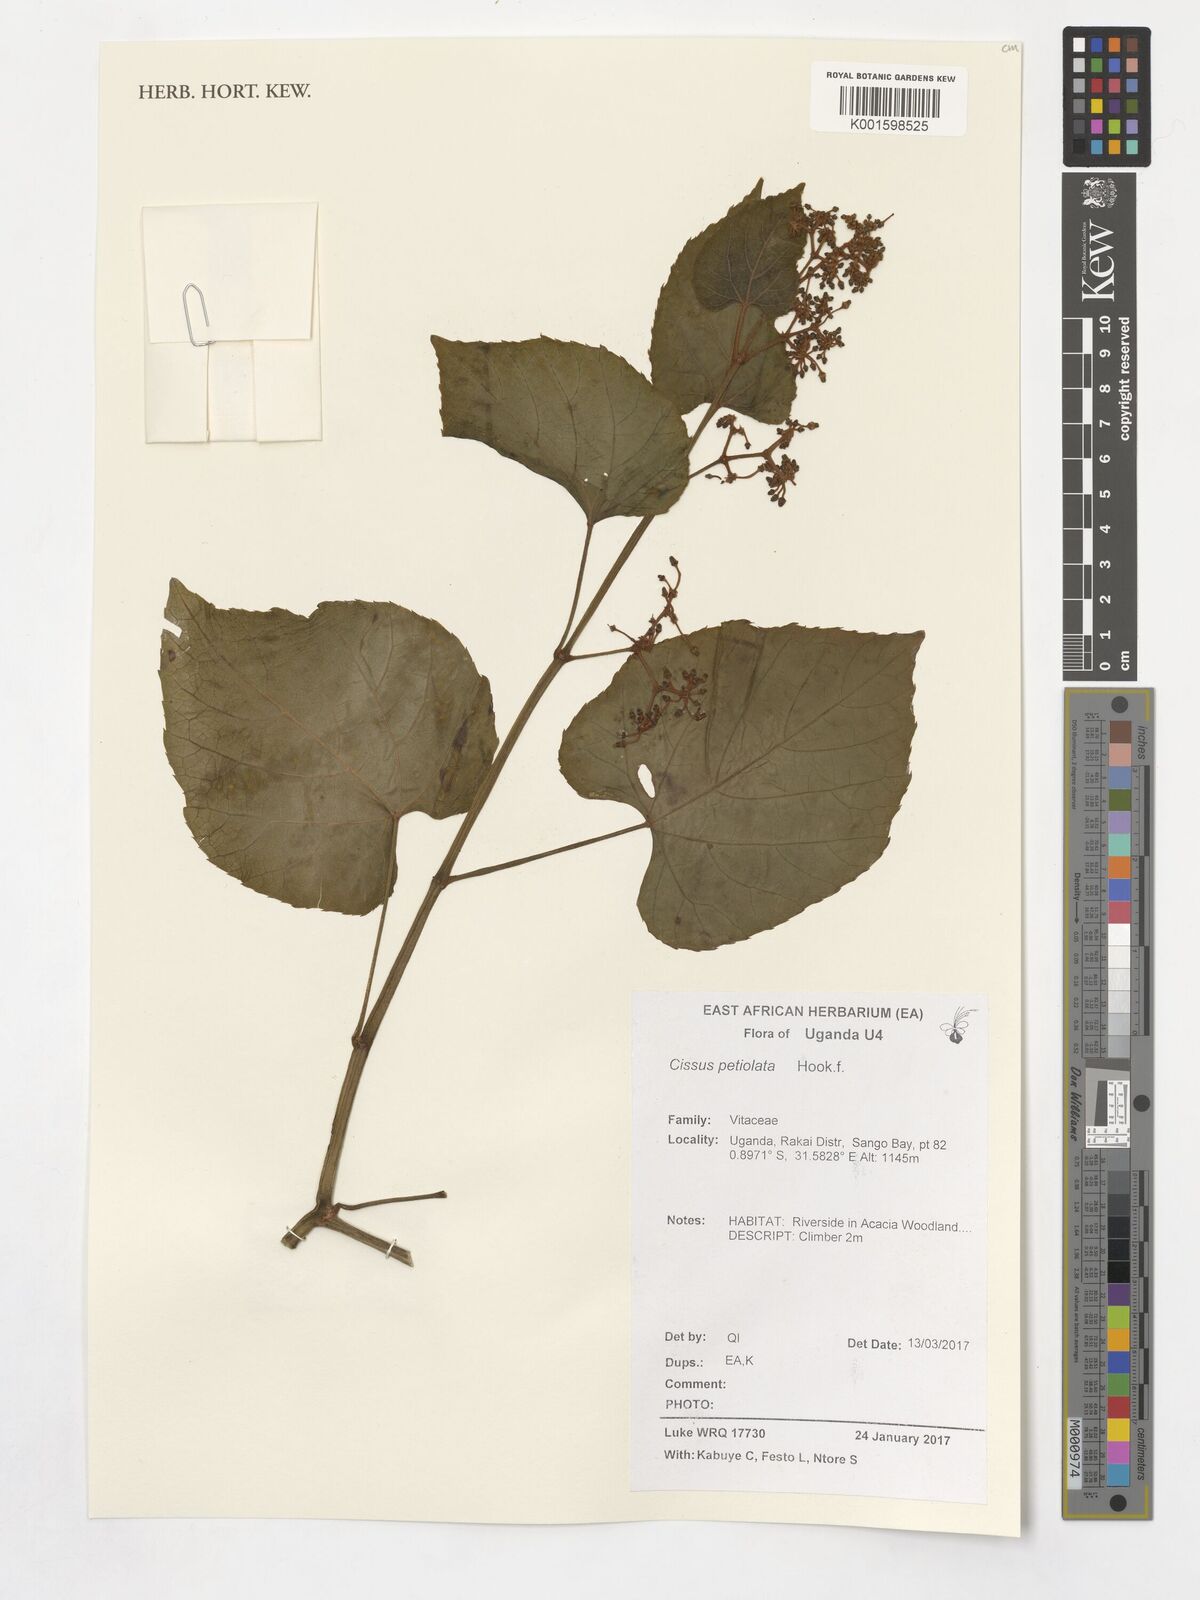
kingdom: Plantae
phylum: Tracheophyta
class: Magnoliopsida
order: Vitales
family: Vitaceae
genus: Cissus
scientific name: Cissus petiolata
